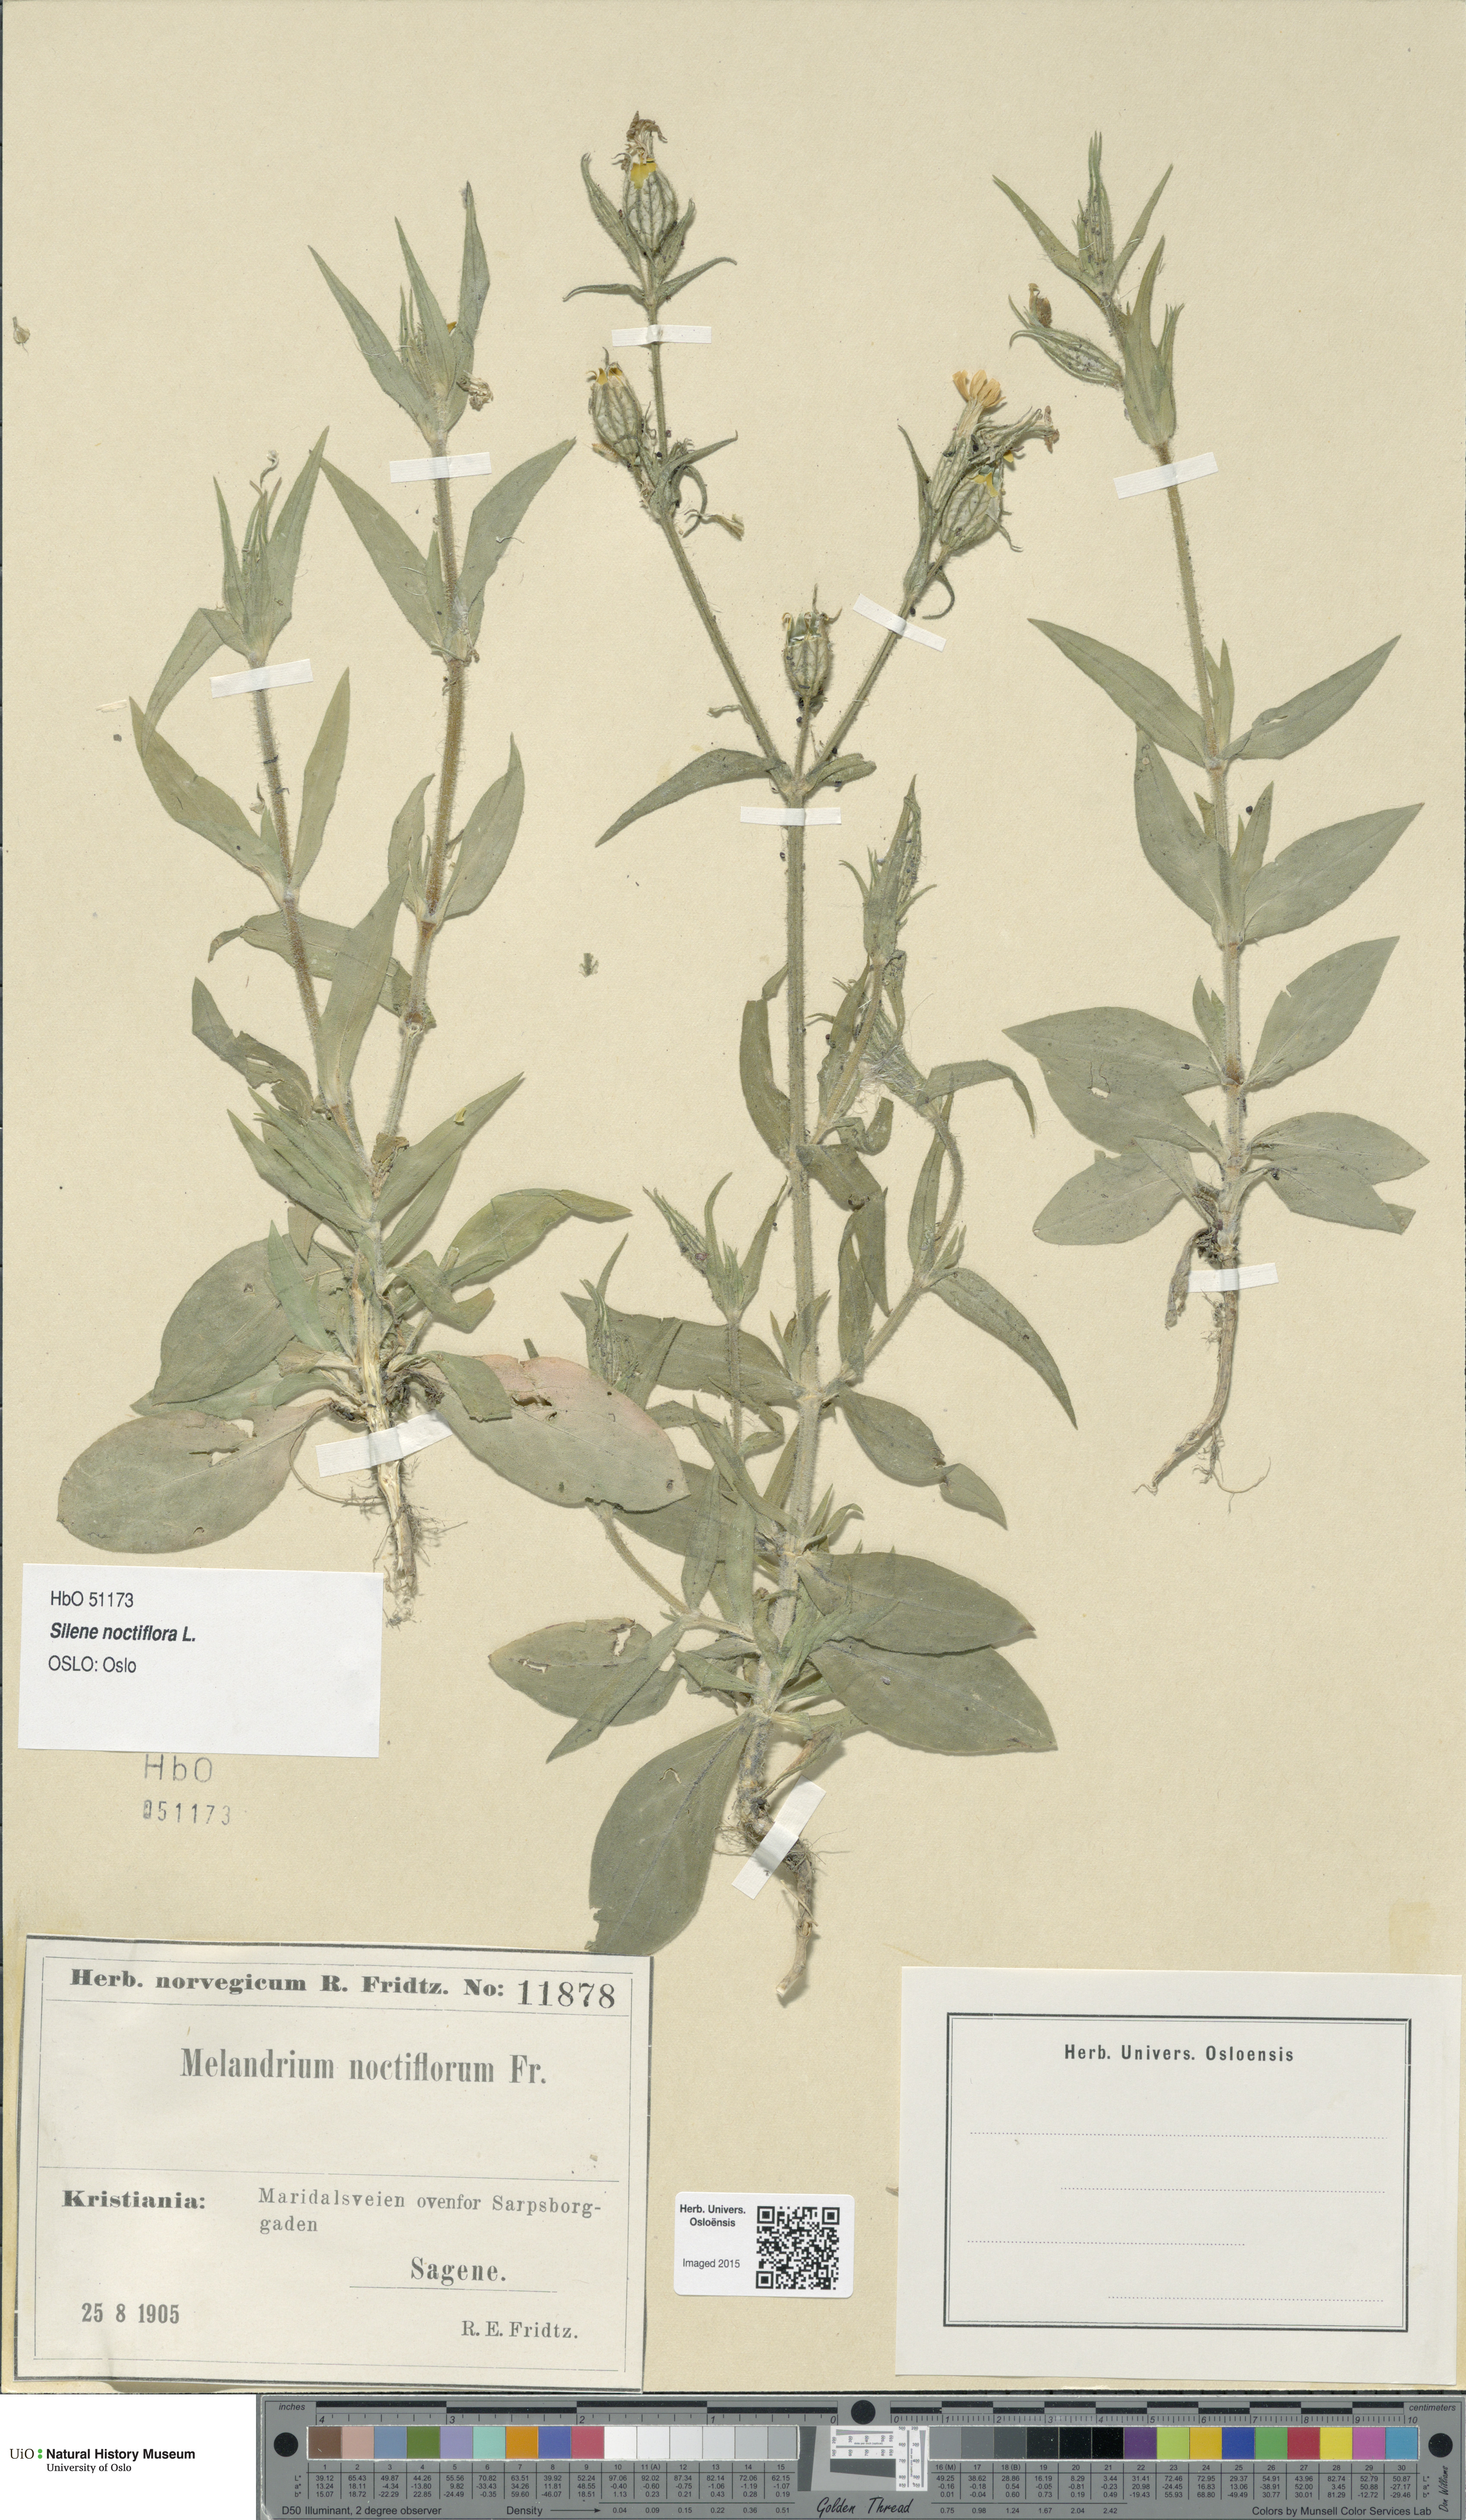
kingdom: Plantae
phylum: Tracheophyta
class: Magnoliopsida
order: Caryophyllales
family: Caryophyllaceae
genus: Silene
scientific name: Silene noctiflora
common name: Night-flowering catchfly
